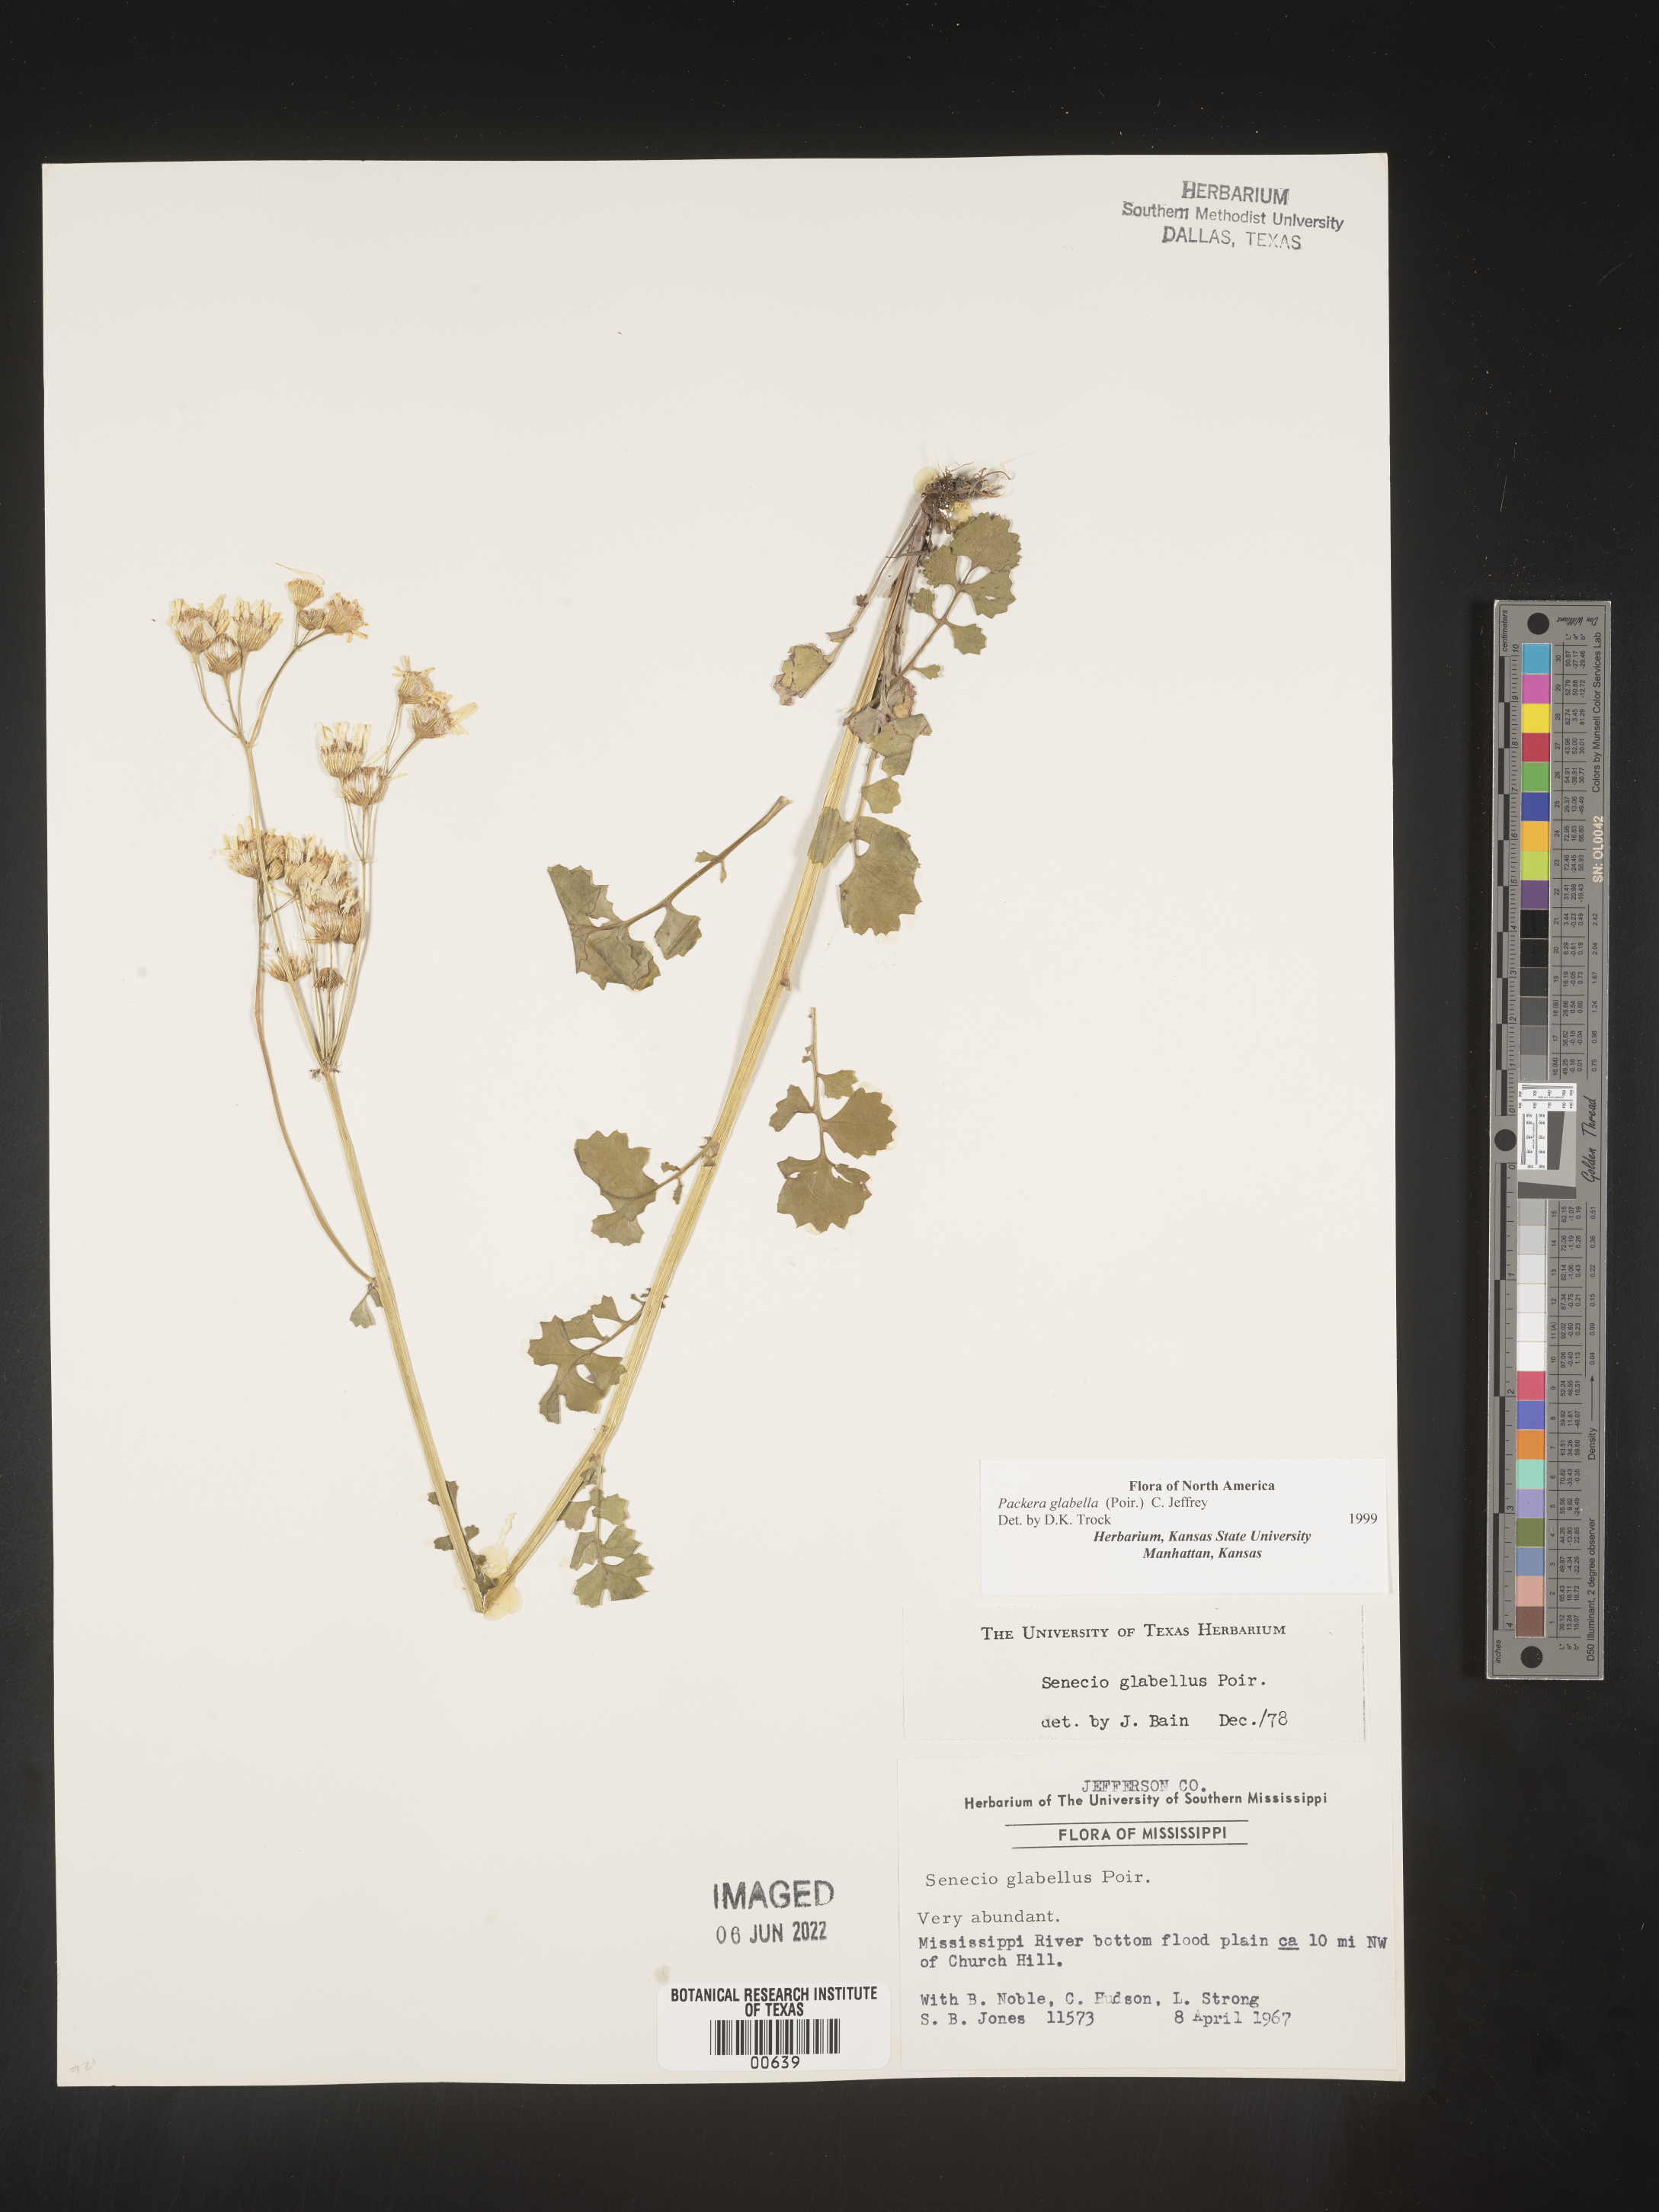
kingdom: Plantae
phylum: Tracheophyta
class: Magnoliopsida
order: Asterales
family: Asteraceae
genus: Packera
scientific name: Packera glabella
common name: Butterweed
